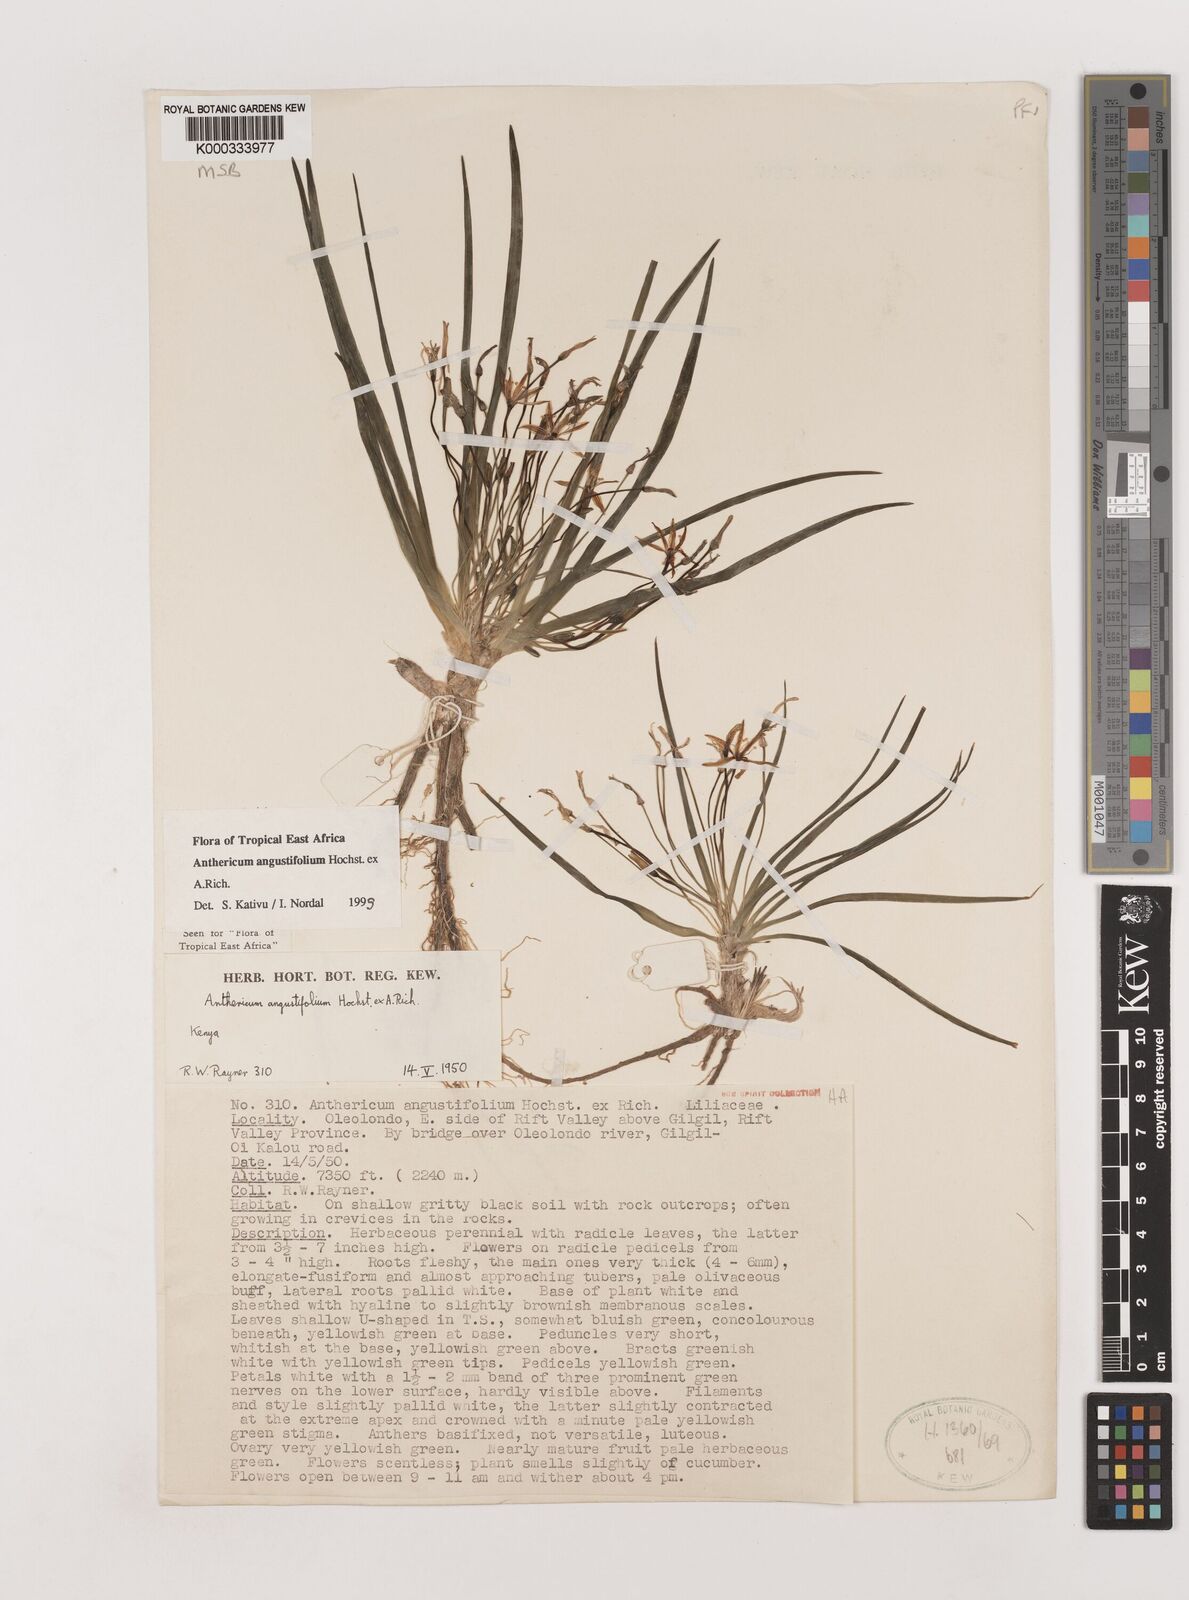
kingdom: Plantae
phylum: Tracheophyta
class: Liliopsida
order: Asparagales
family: Asparagaceae
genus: Anthericum
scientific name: Anthericum angustifolium
